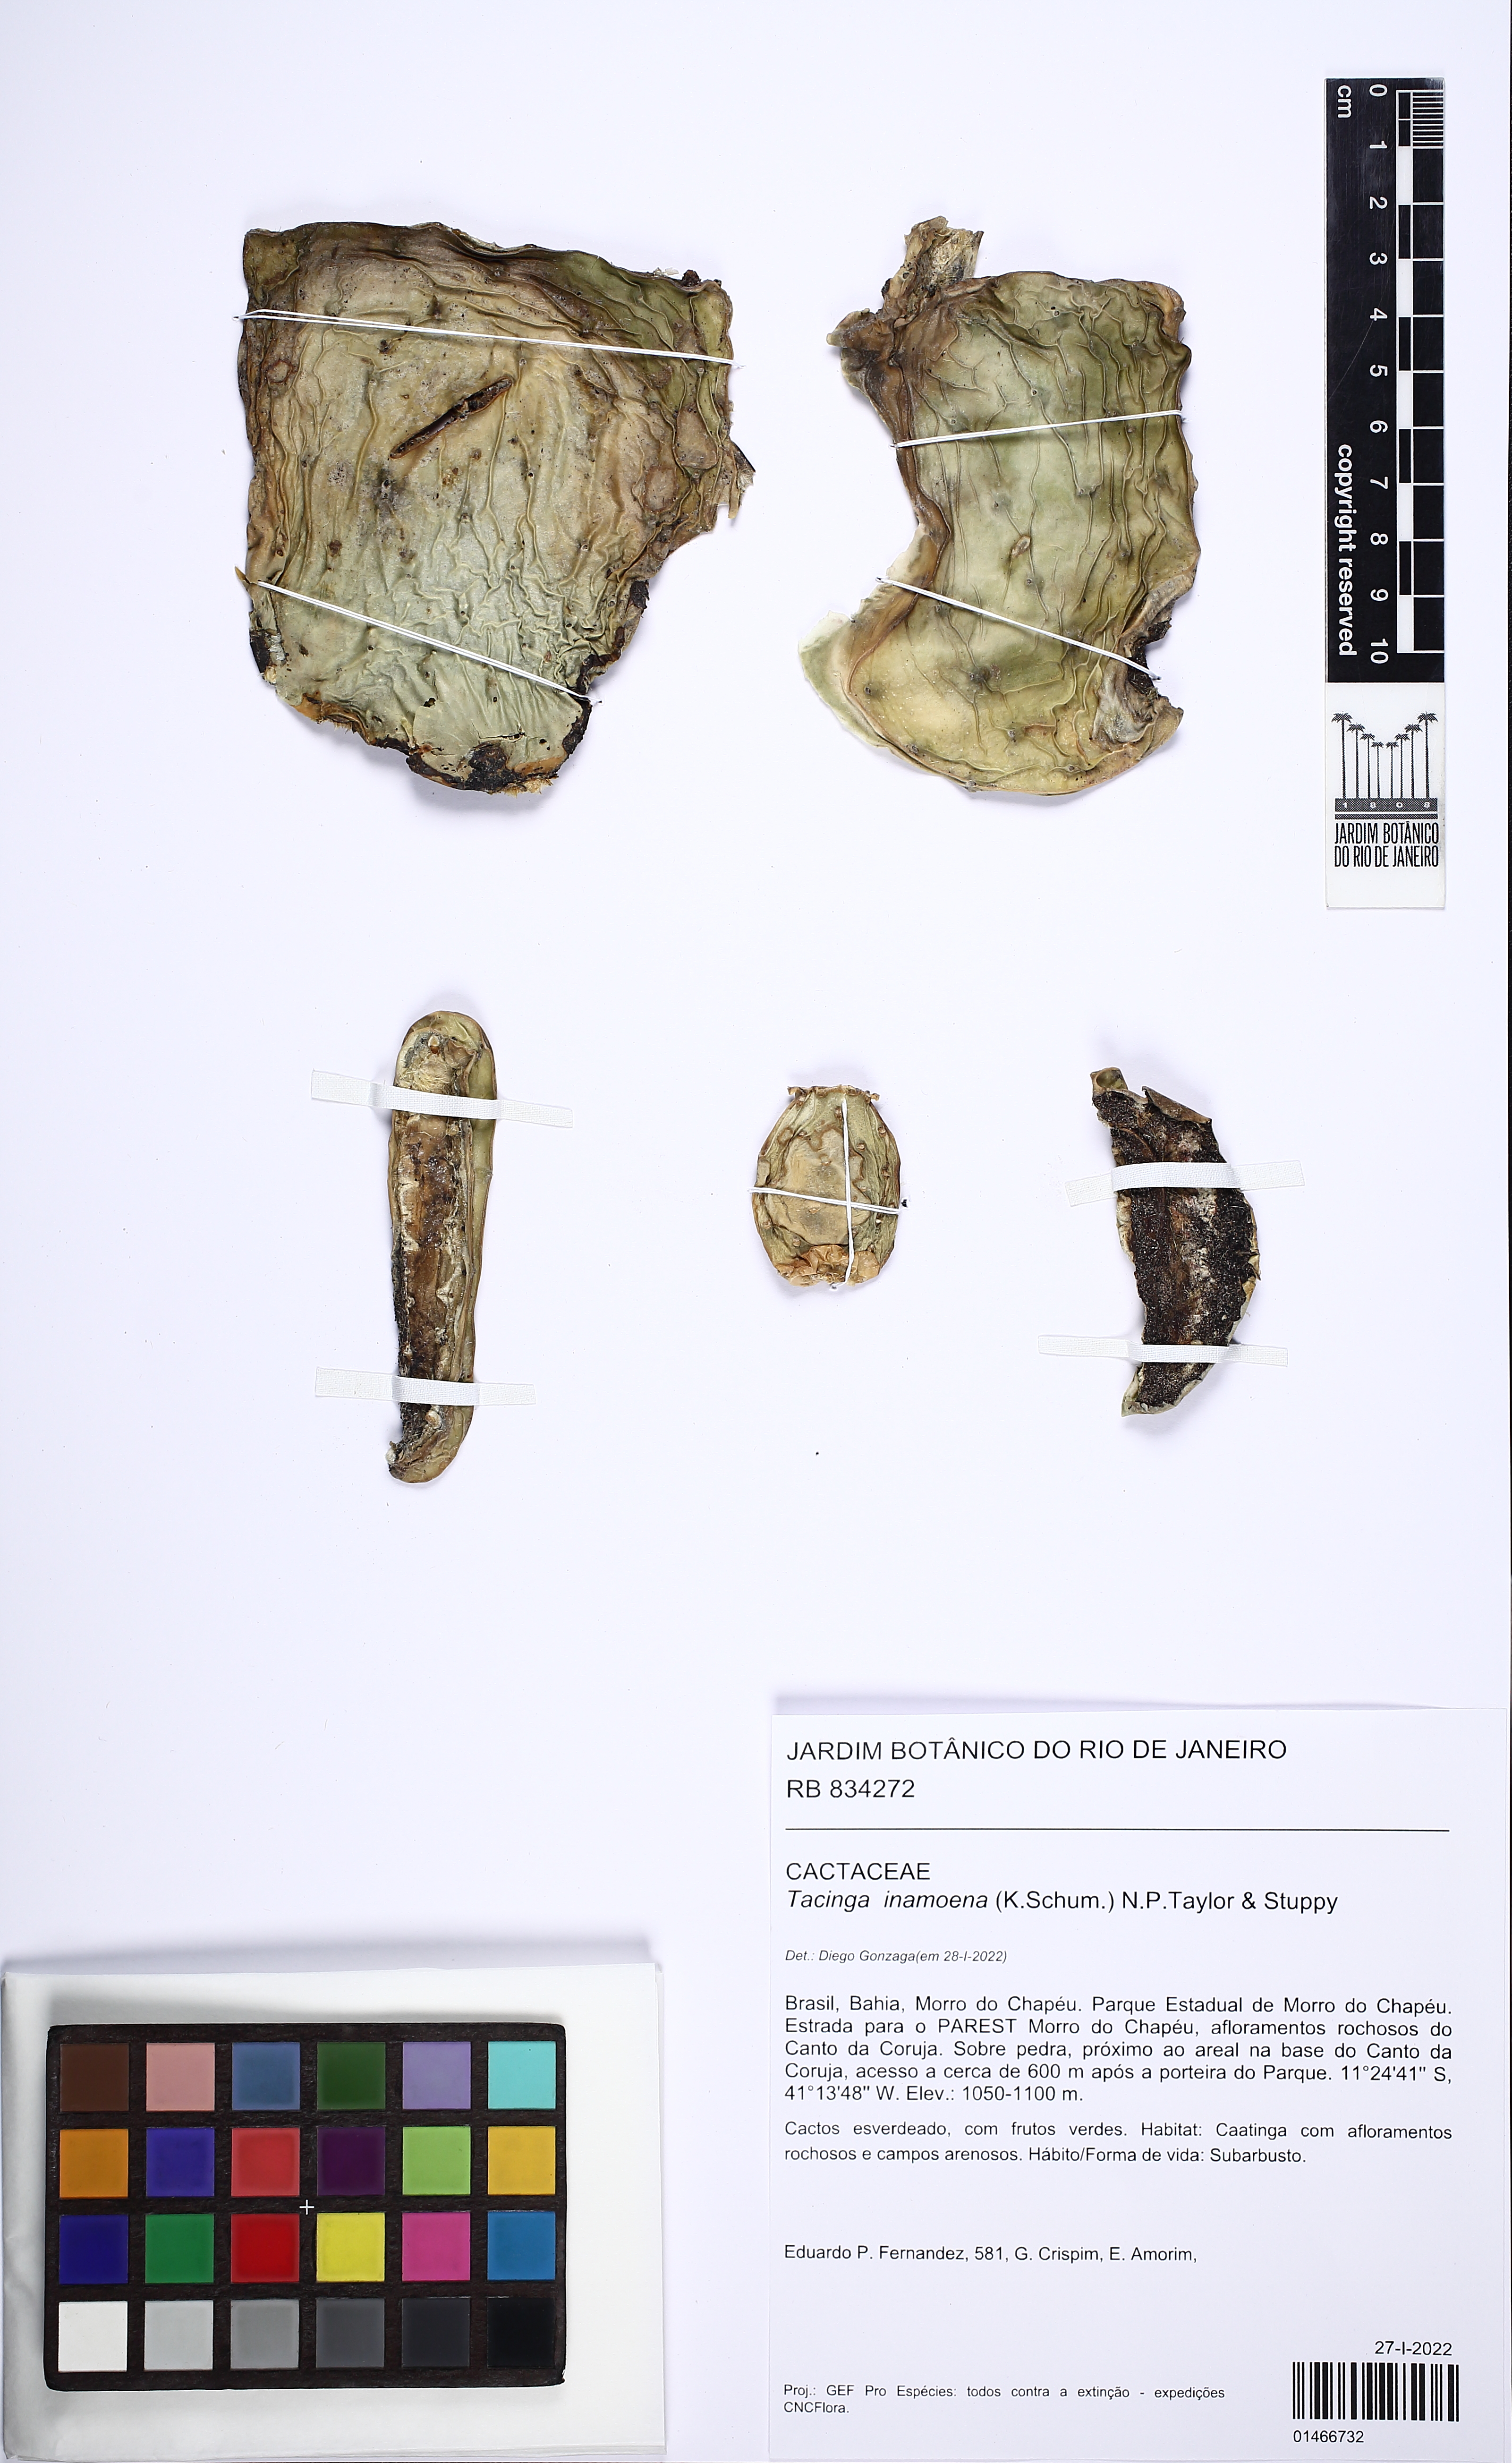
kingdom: Plantae
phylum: Tracheophyta
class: Magnoliopsida
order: Caryophyllales
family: Cactaceae
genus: Tacinga
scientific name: Tacinga inamoena
